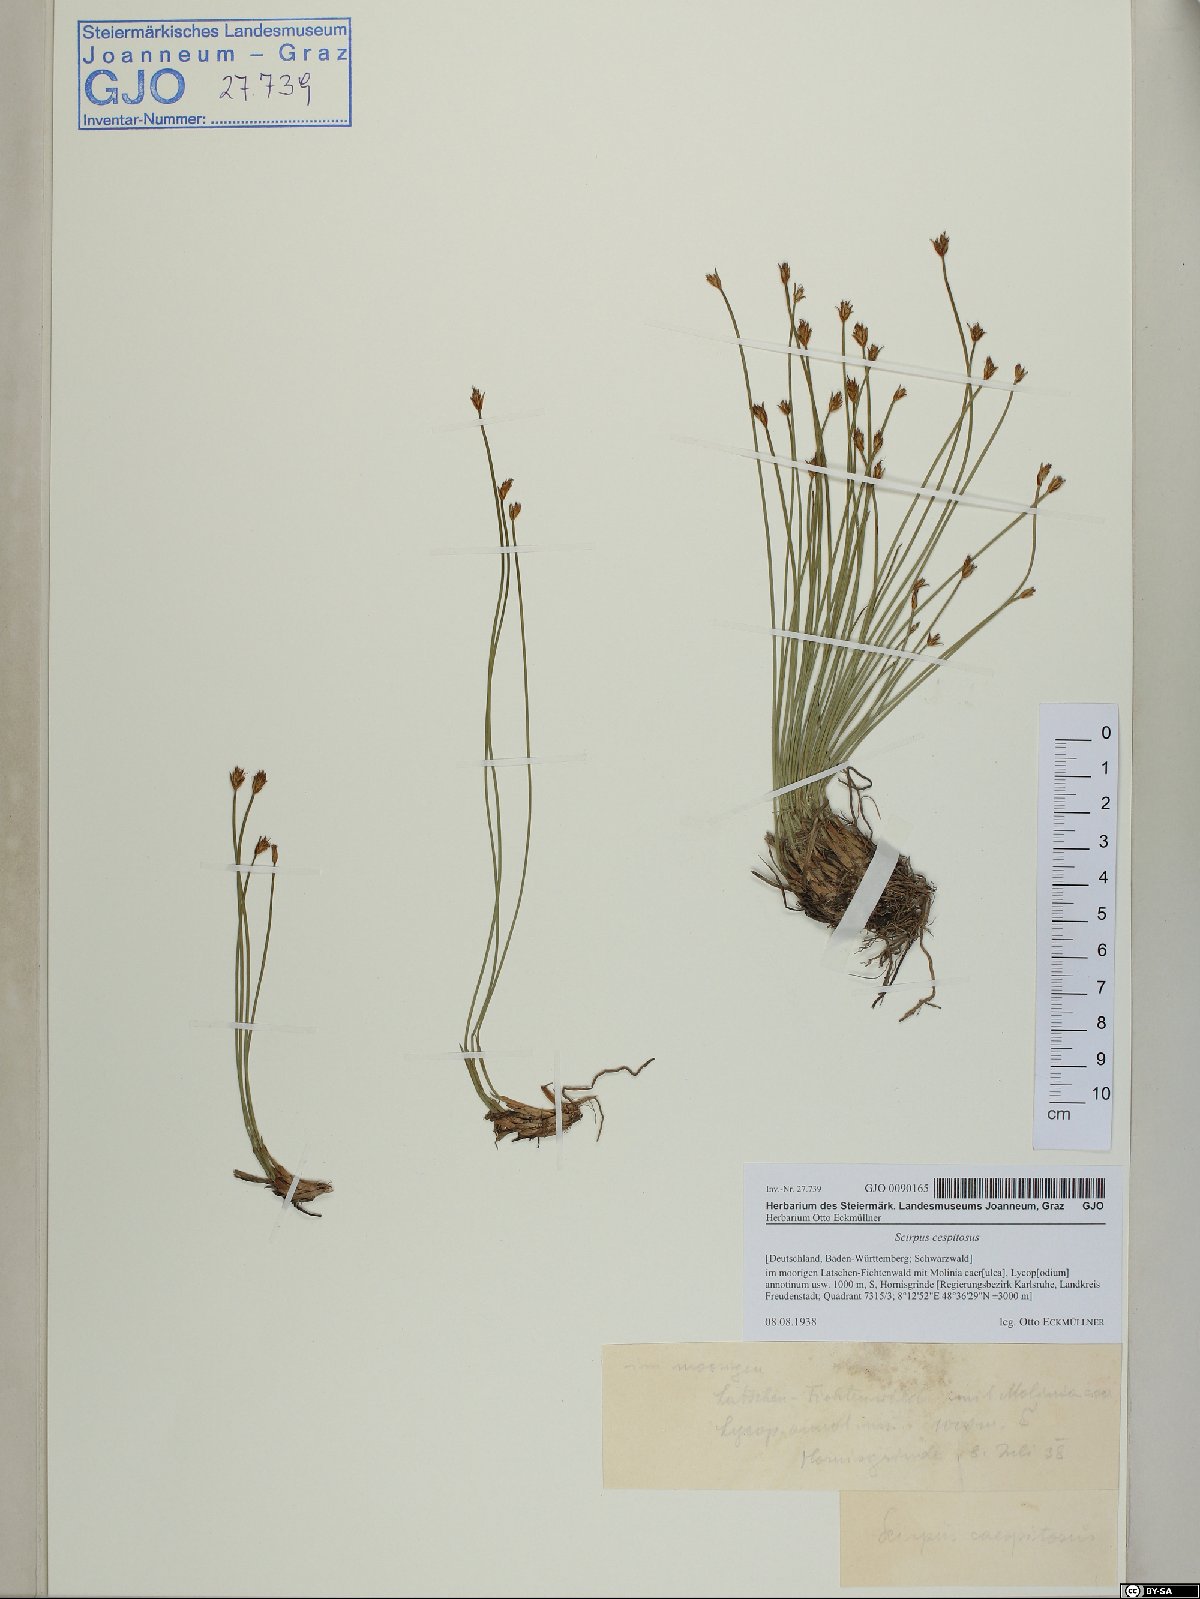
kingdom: Plantae
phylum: Tracheophyta
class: Liliopsida
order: Poales
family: Cyperaceae
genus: Trichophorum
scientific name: Trichophorum cespitosum
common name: Cespitose bulrush
